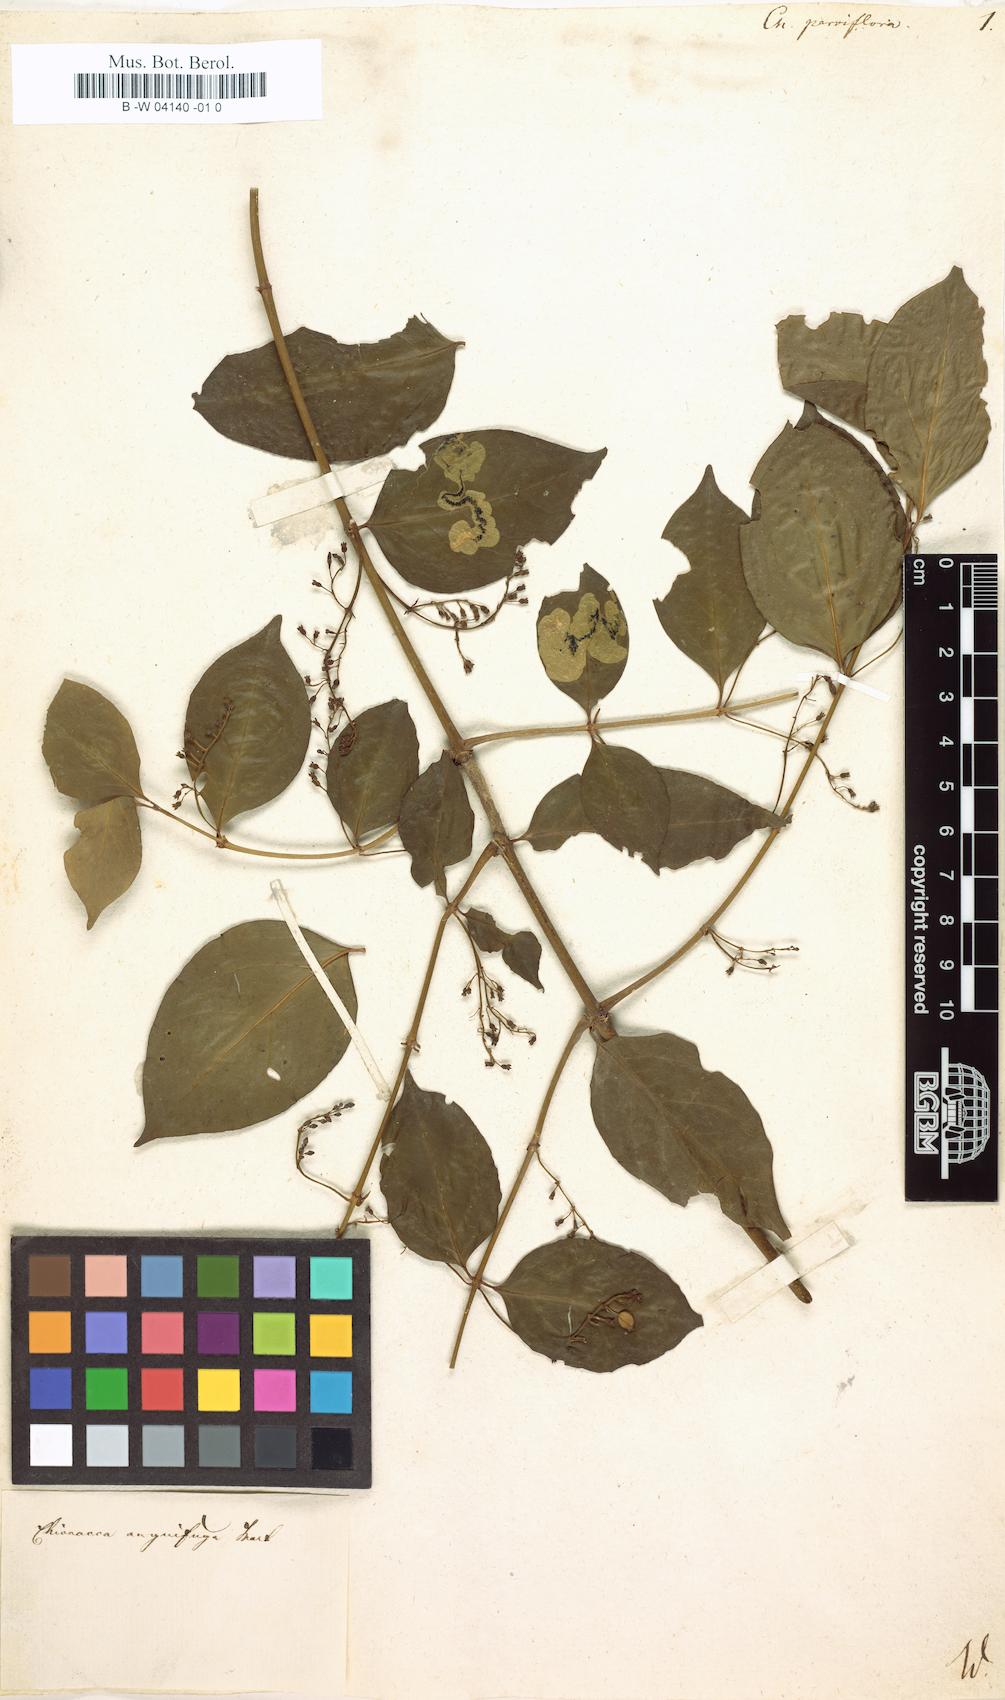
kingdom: Plantae
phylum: Tracheophyta
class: Magnoliopsida
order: Gentianales
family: Rubiaceae
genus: Chiococca
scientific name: Chiococca parviflora
